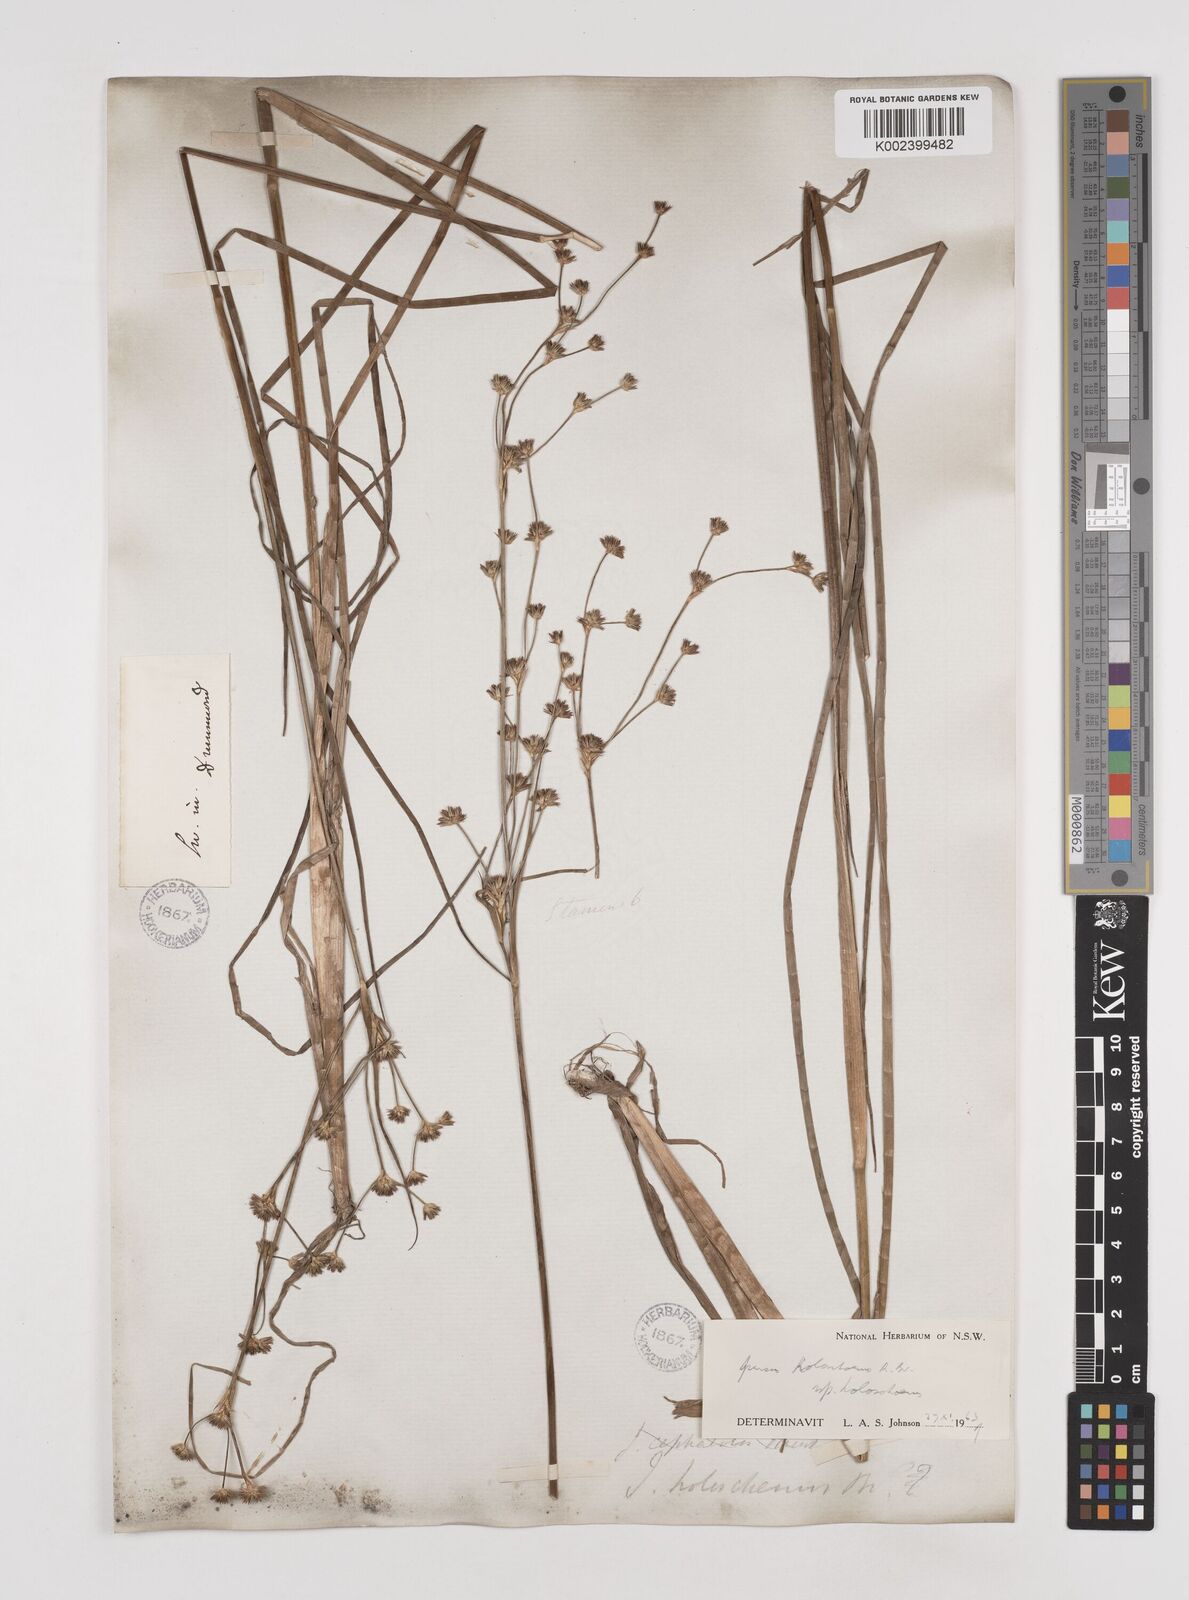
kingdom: Plantae
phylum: Tracheophyta
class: Liliopsida
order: Poales
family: Juncaceae
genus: Juncus
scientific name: Juncus holoschoenus
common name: Joint-leaf rush
